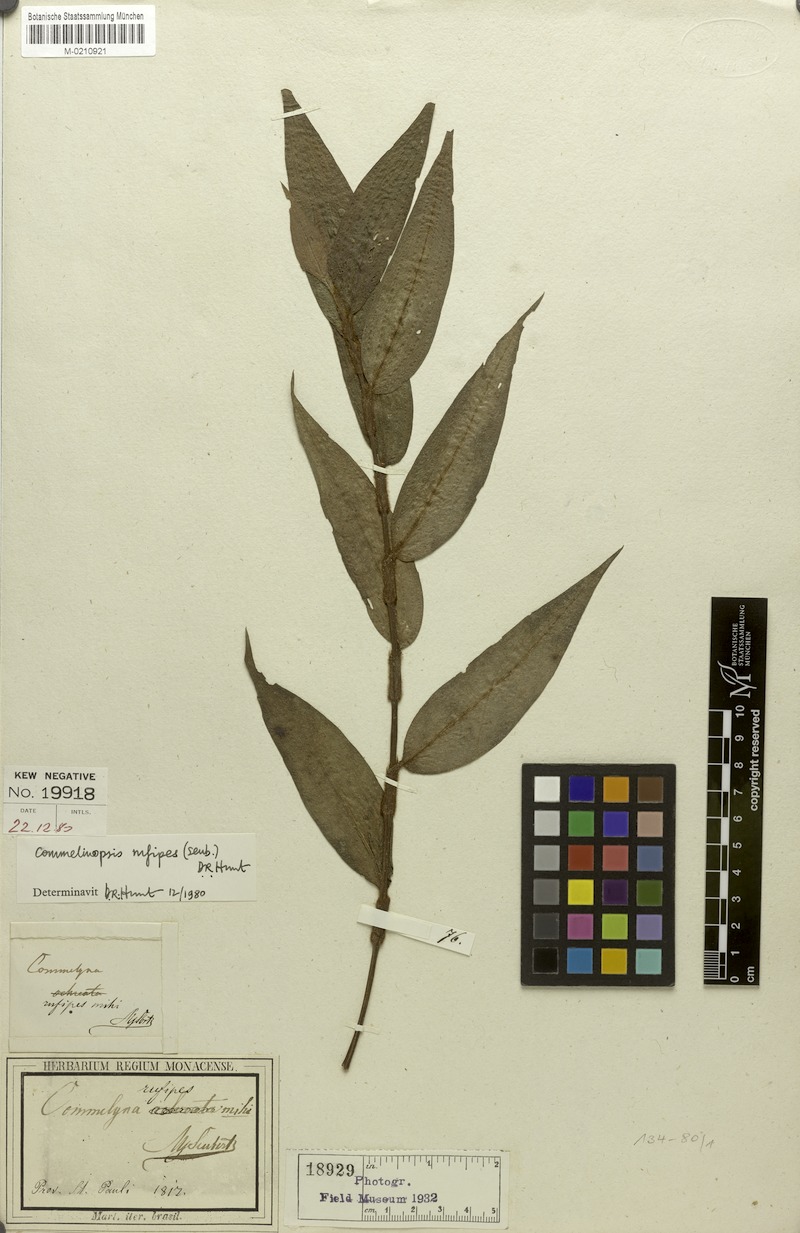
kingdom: Plantae
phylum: Tracheophyta
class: Liliopsida
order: Commelinales
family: Commelinaceae
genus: Commelina
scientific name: Commelina rufipes
